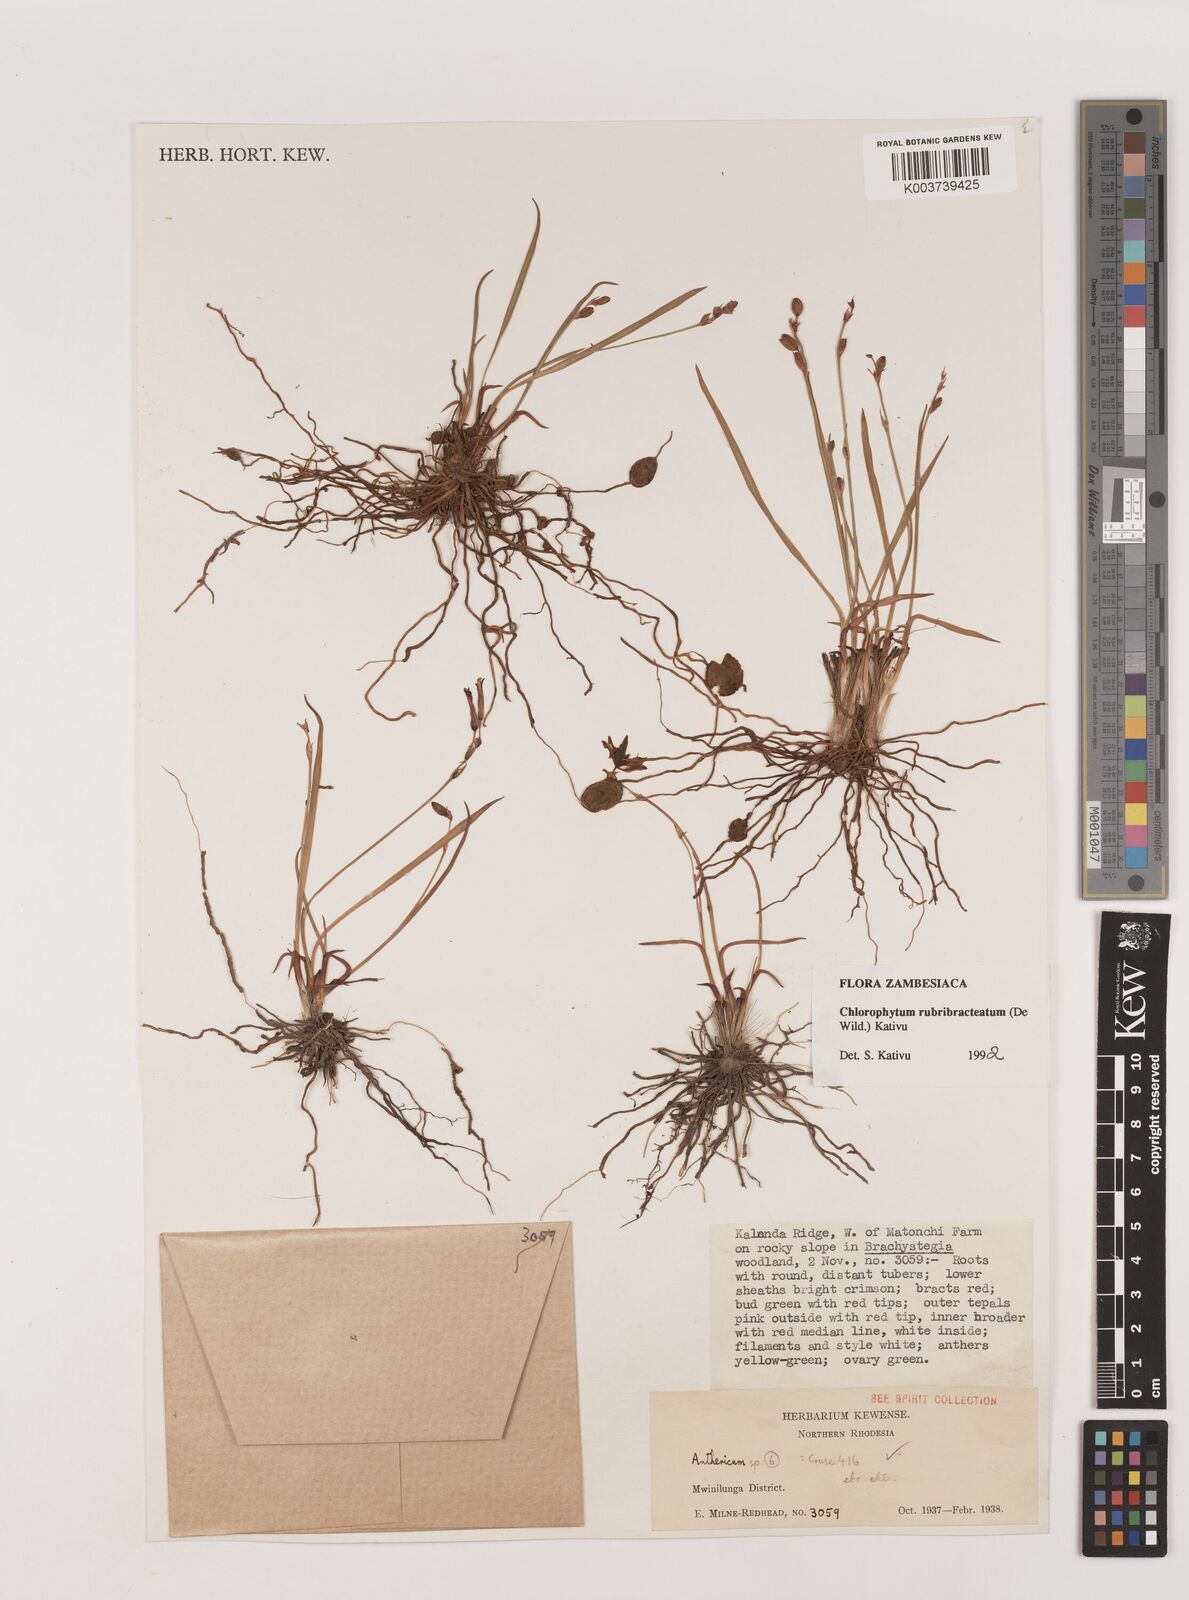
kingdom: Plantae
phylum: Tracheophyta
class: Liliopsida
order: Asparagales
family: Asparagaceae
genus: Chlorophytum
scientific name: Chlorophytum rubribracteatum
